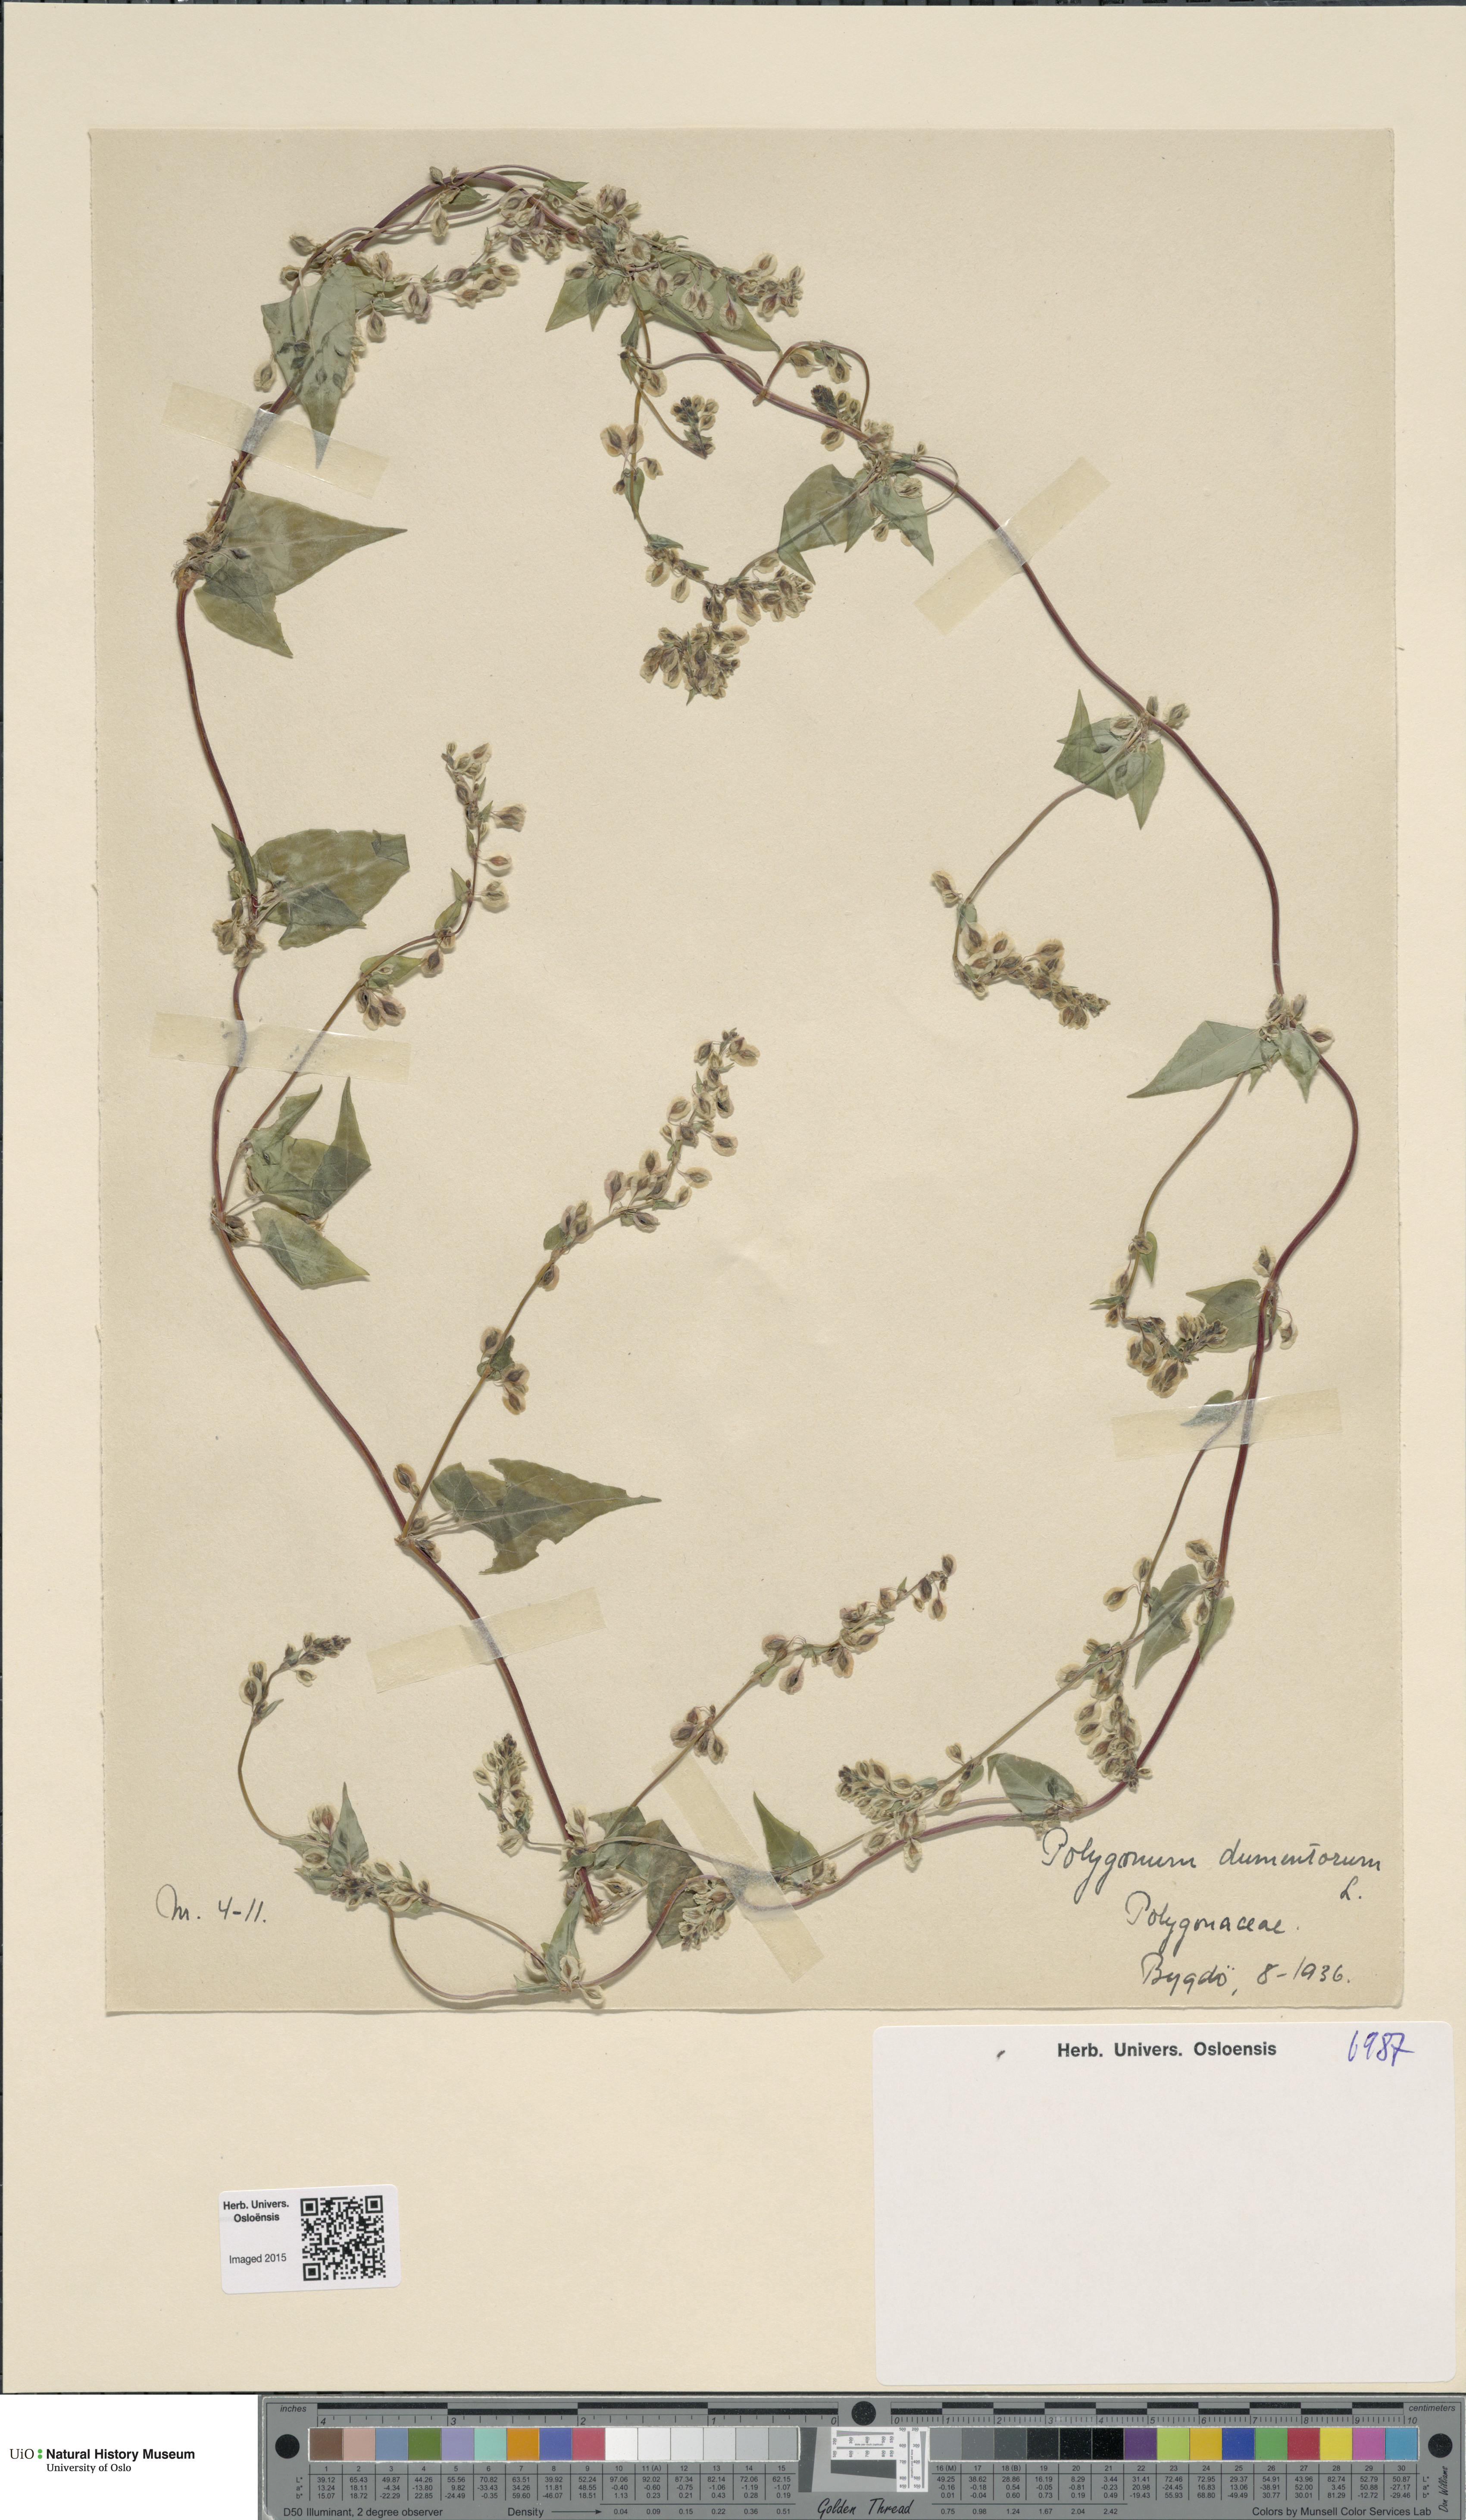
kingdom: Plantae
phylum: Tracheophyta
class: Magnoliopsida
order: Caryophyllales
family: Polygonaceae
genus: Fallopia
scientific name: Fallopia dumetorum
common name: Copse-bindweed
